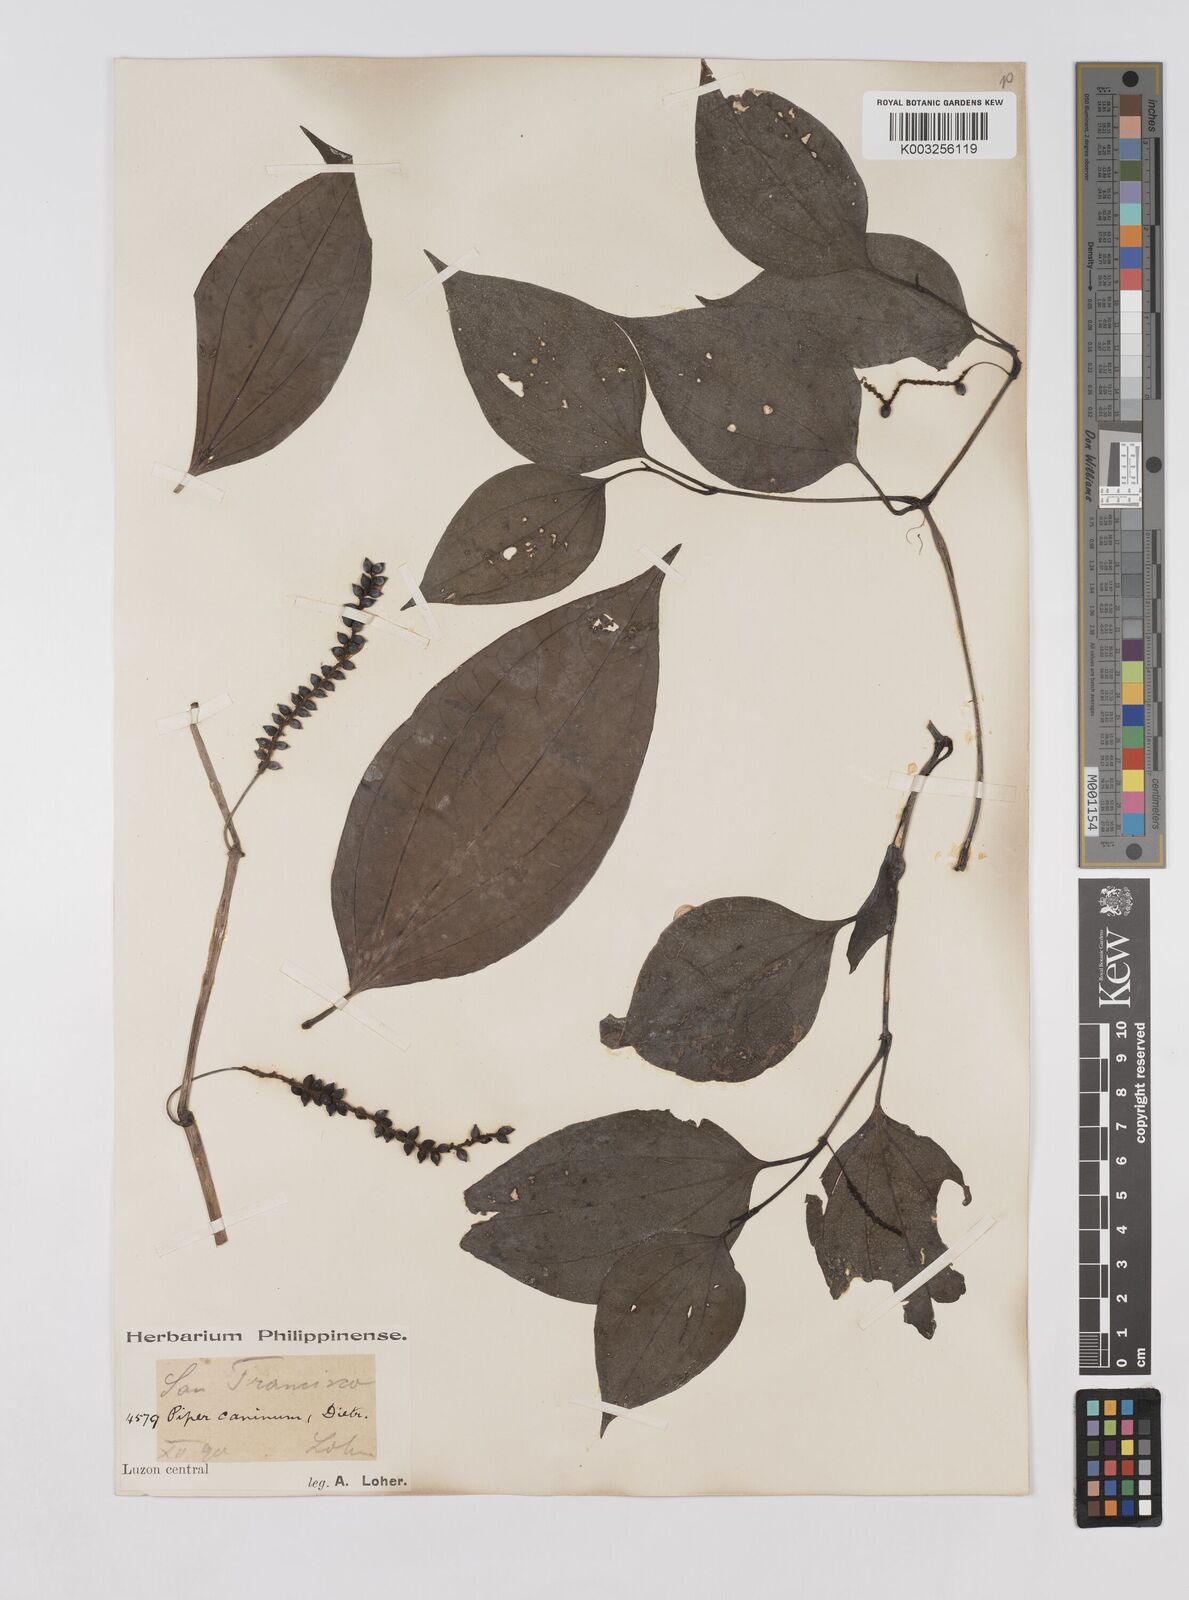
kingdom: Plantae
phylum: Tracheophyta
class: Magnoliopsida
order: Piperales
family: Piperaceae
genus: Piper
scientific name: Piper lanatum
